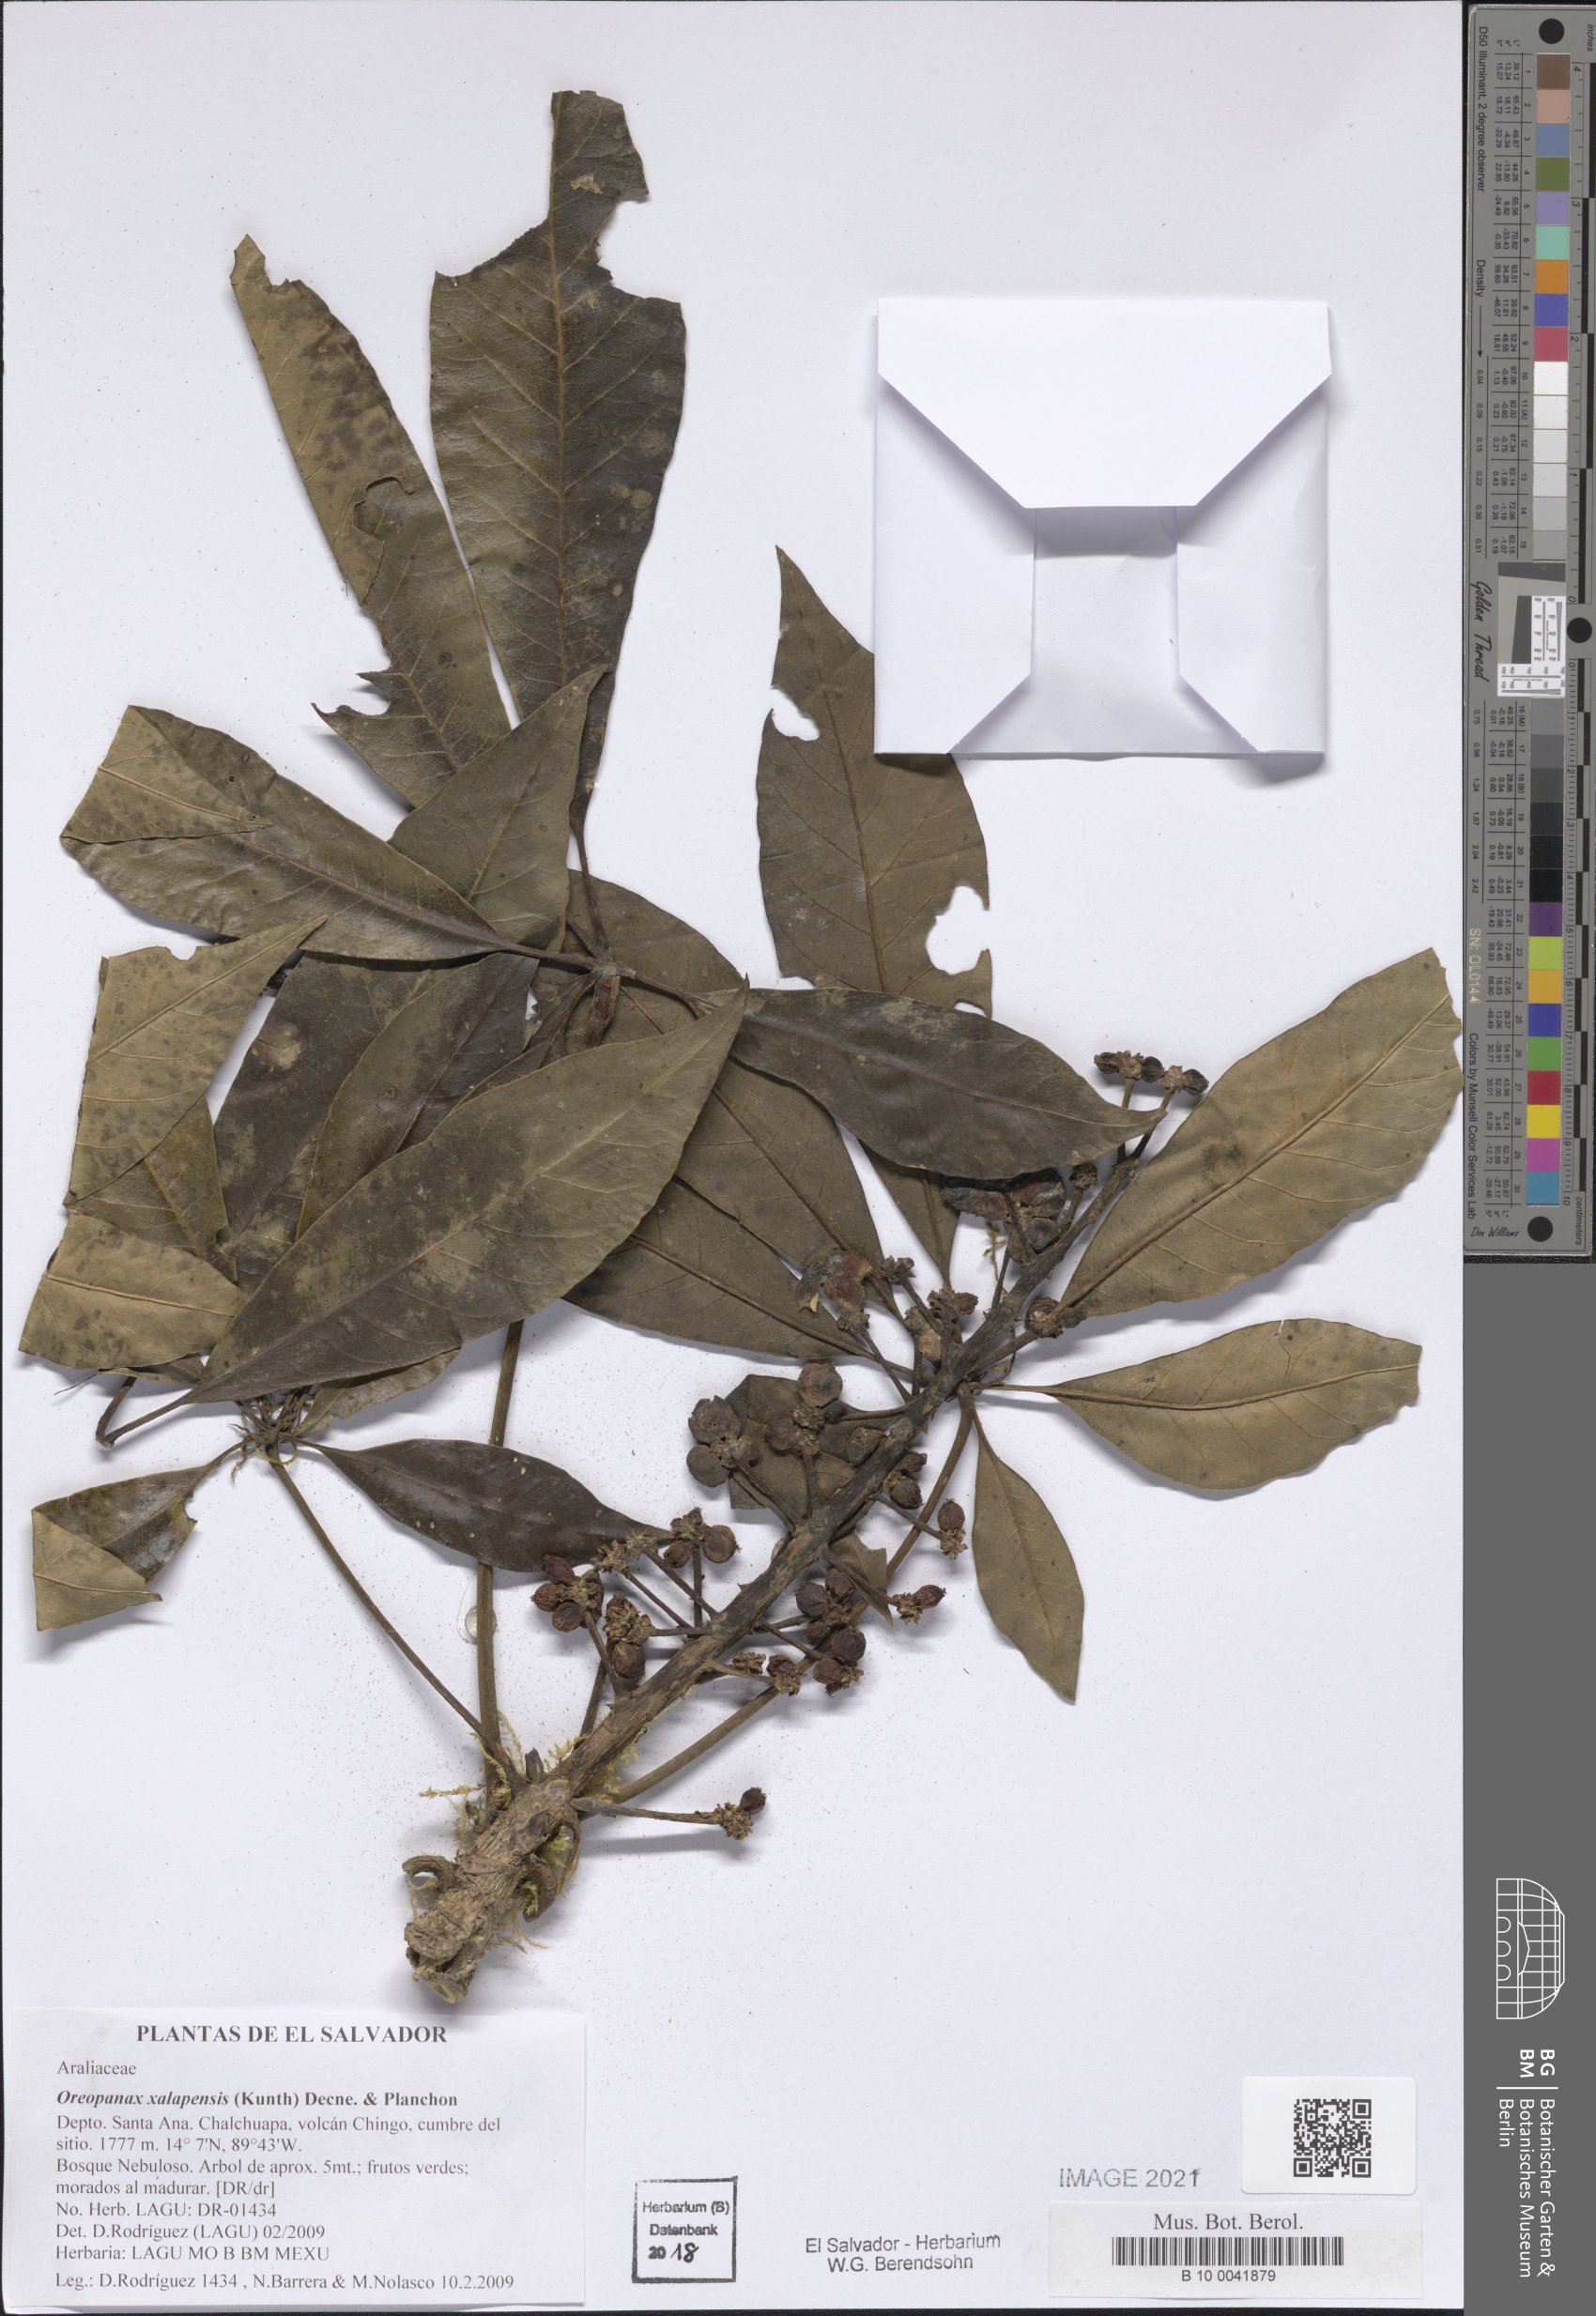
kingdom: Plantae
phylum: Tracheophyta
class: Magnoliopsida
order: Apiales
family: Araliaceae
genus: Oreopanax
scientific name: Oreopanax xalapensis
